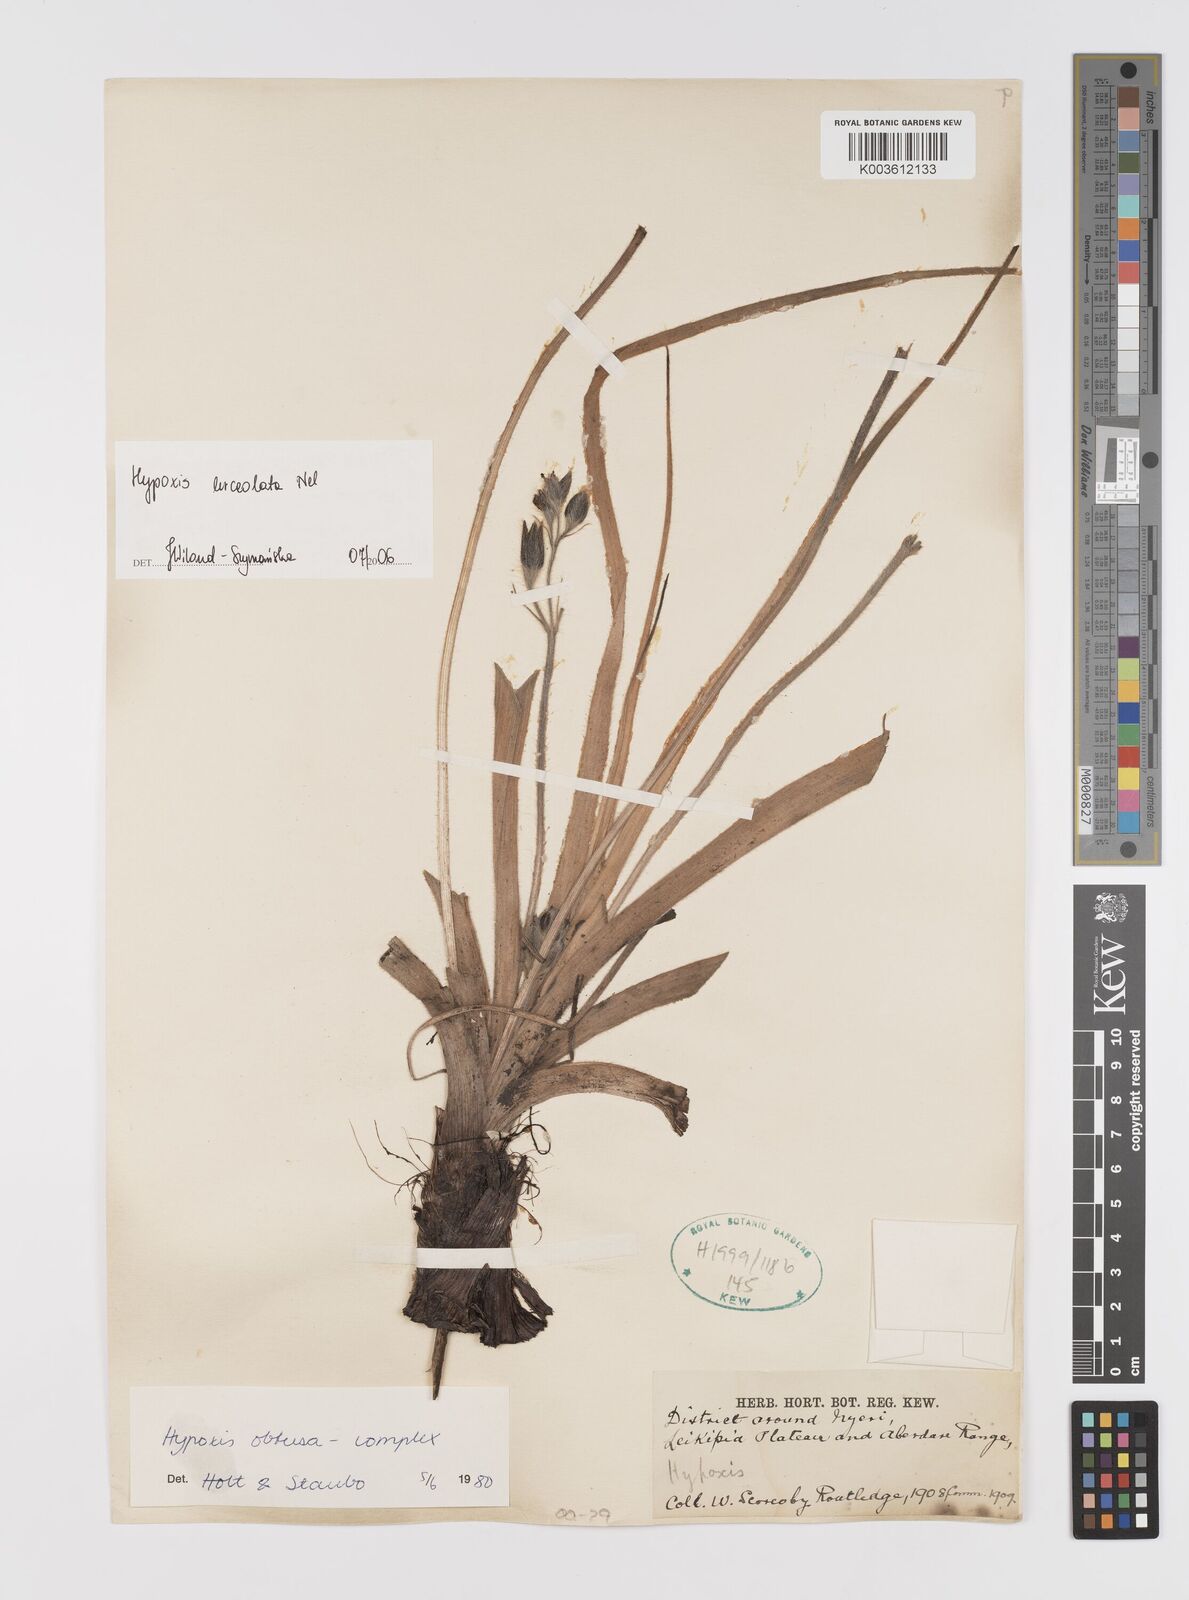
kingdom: Plantae
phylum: Tracheophyta
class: Liliopsida
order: Asparagales
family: Hypoxidaceae
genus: Hypoxis
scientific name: Hypoxis urceolata
